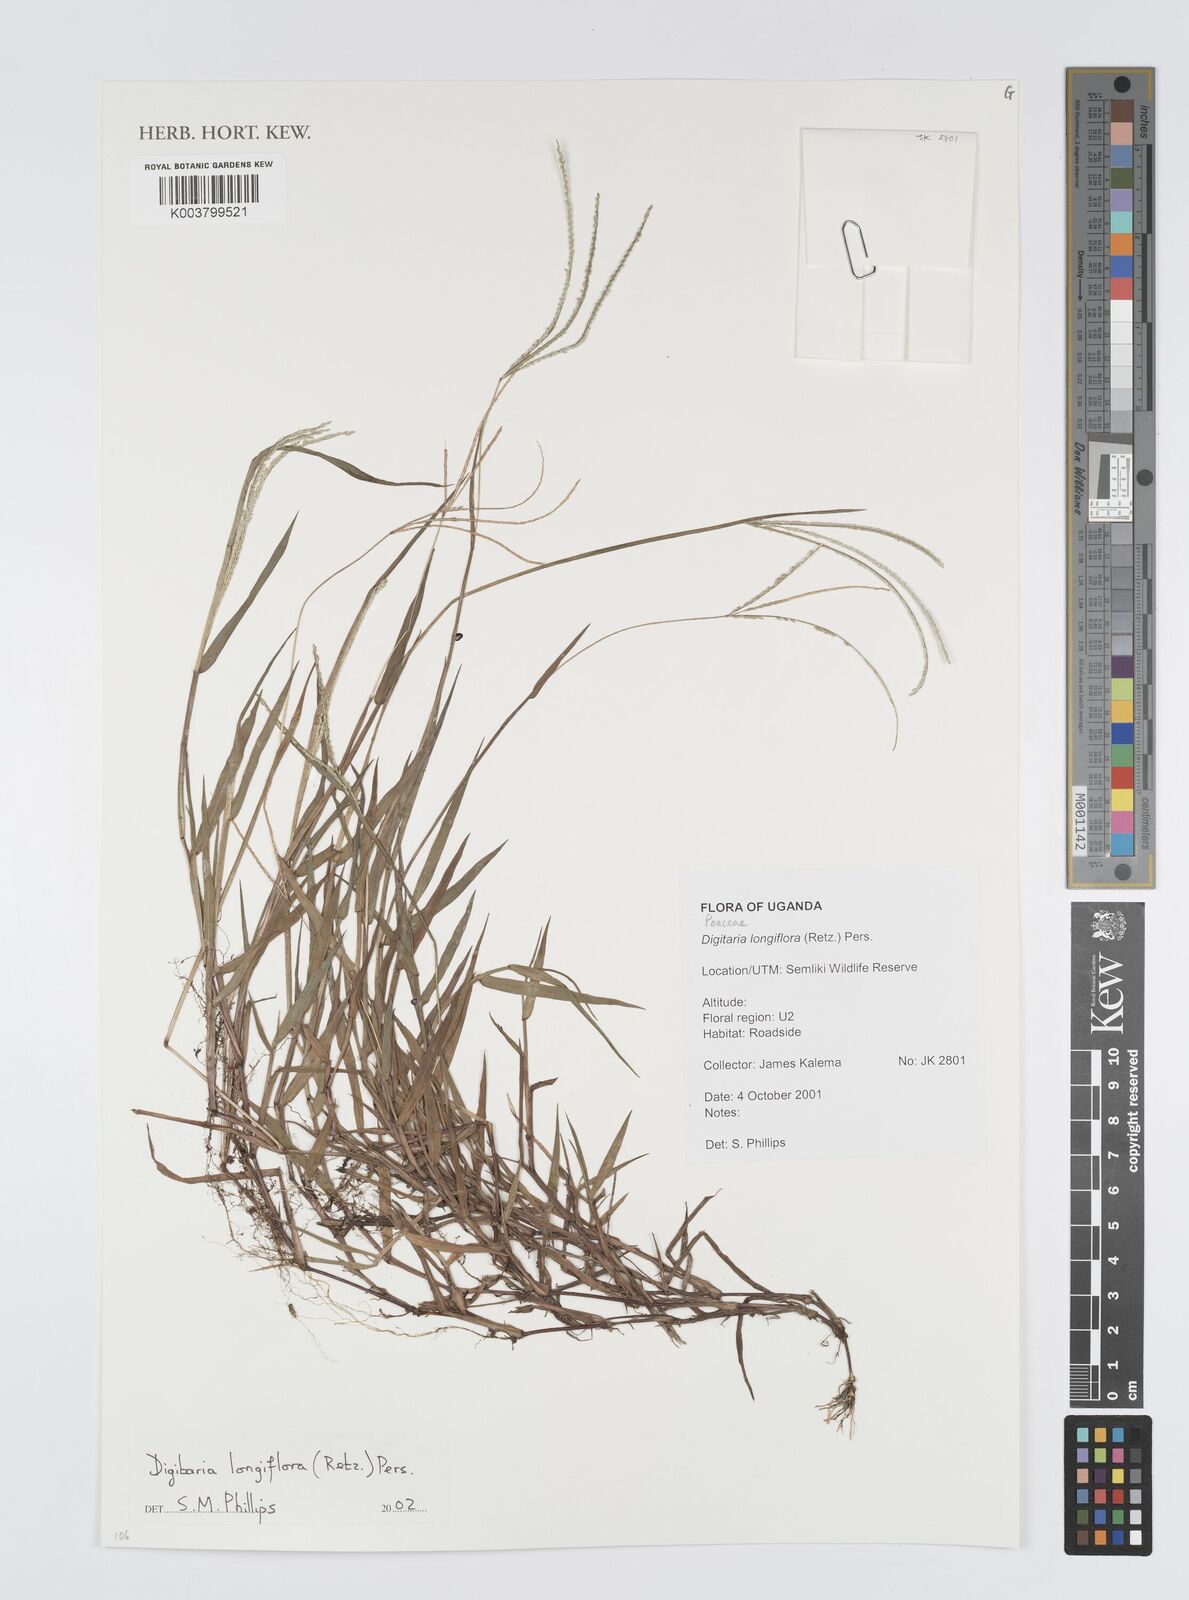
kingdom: Plantae
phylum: Tracheophyta
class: Liliopsida
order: Poales
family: Poaceae
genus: Digitaria
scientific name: Digitaria longiflora
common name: Wire crabgrass
